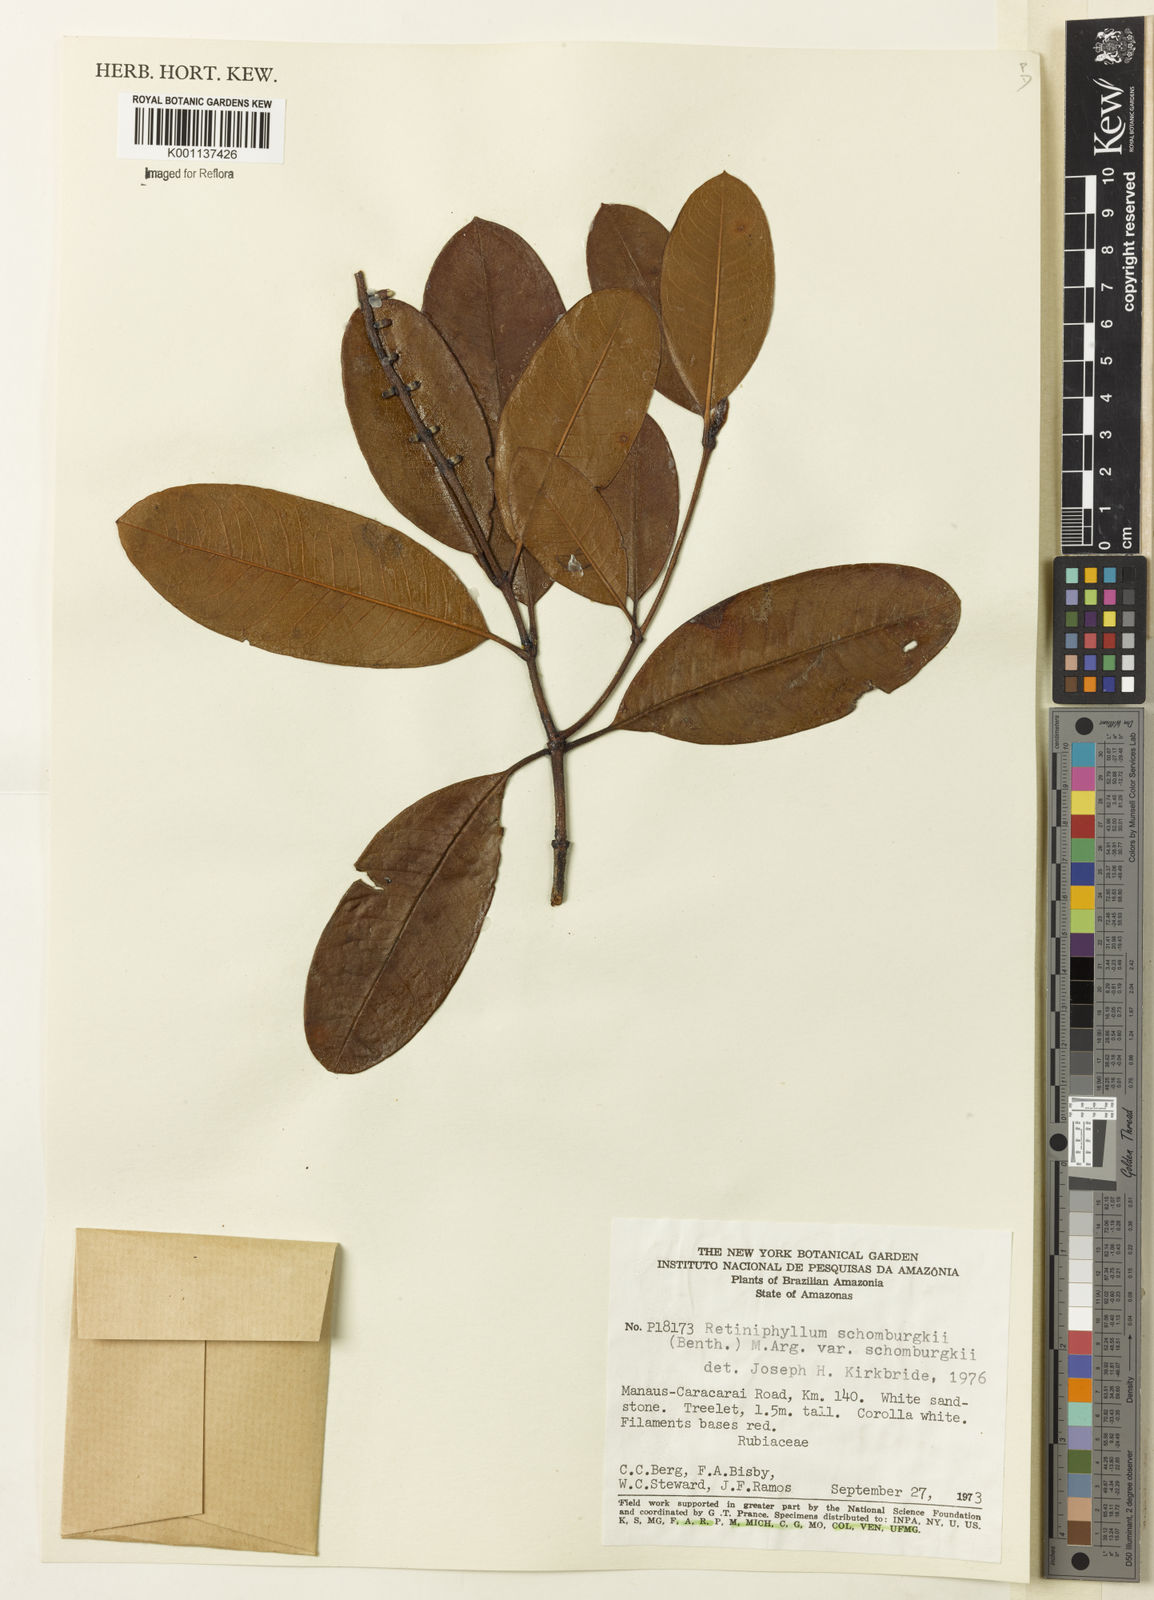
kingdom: Plantae
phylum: Tracheophyta
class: Magnoliopsida
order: Gentianales
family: Rubiaceae
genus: Retiniphyllum
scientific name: Retiniphyllum
